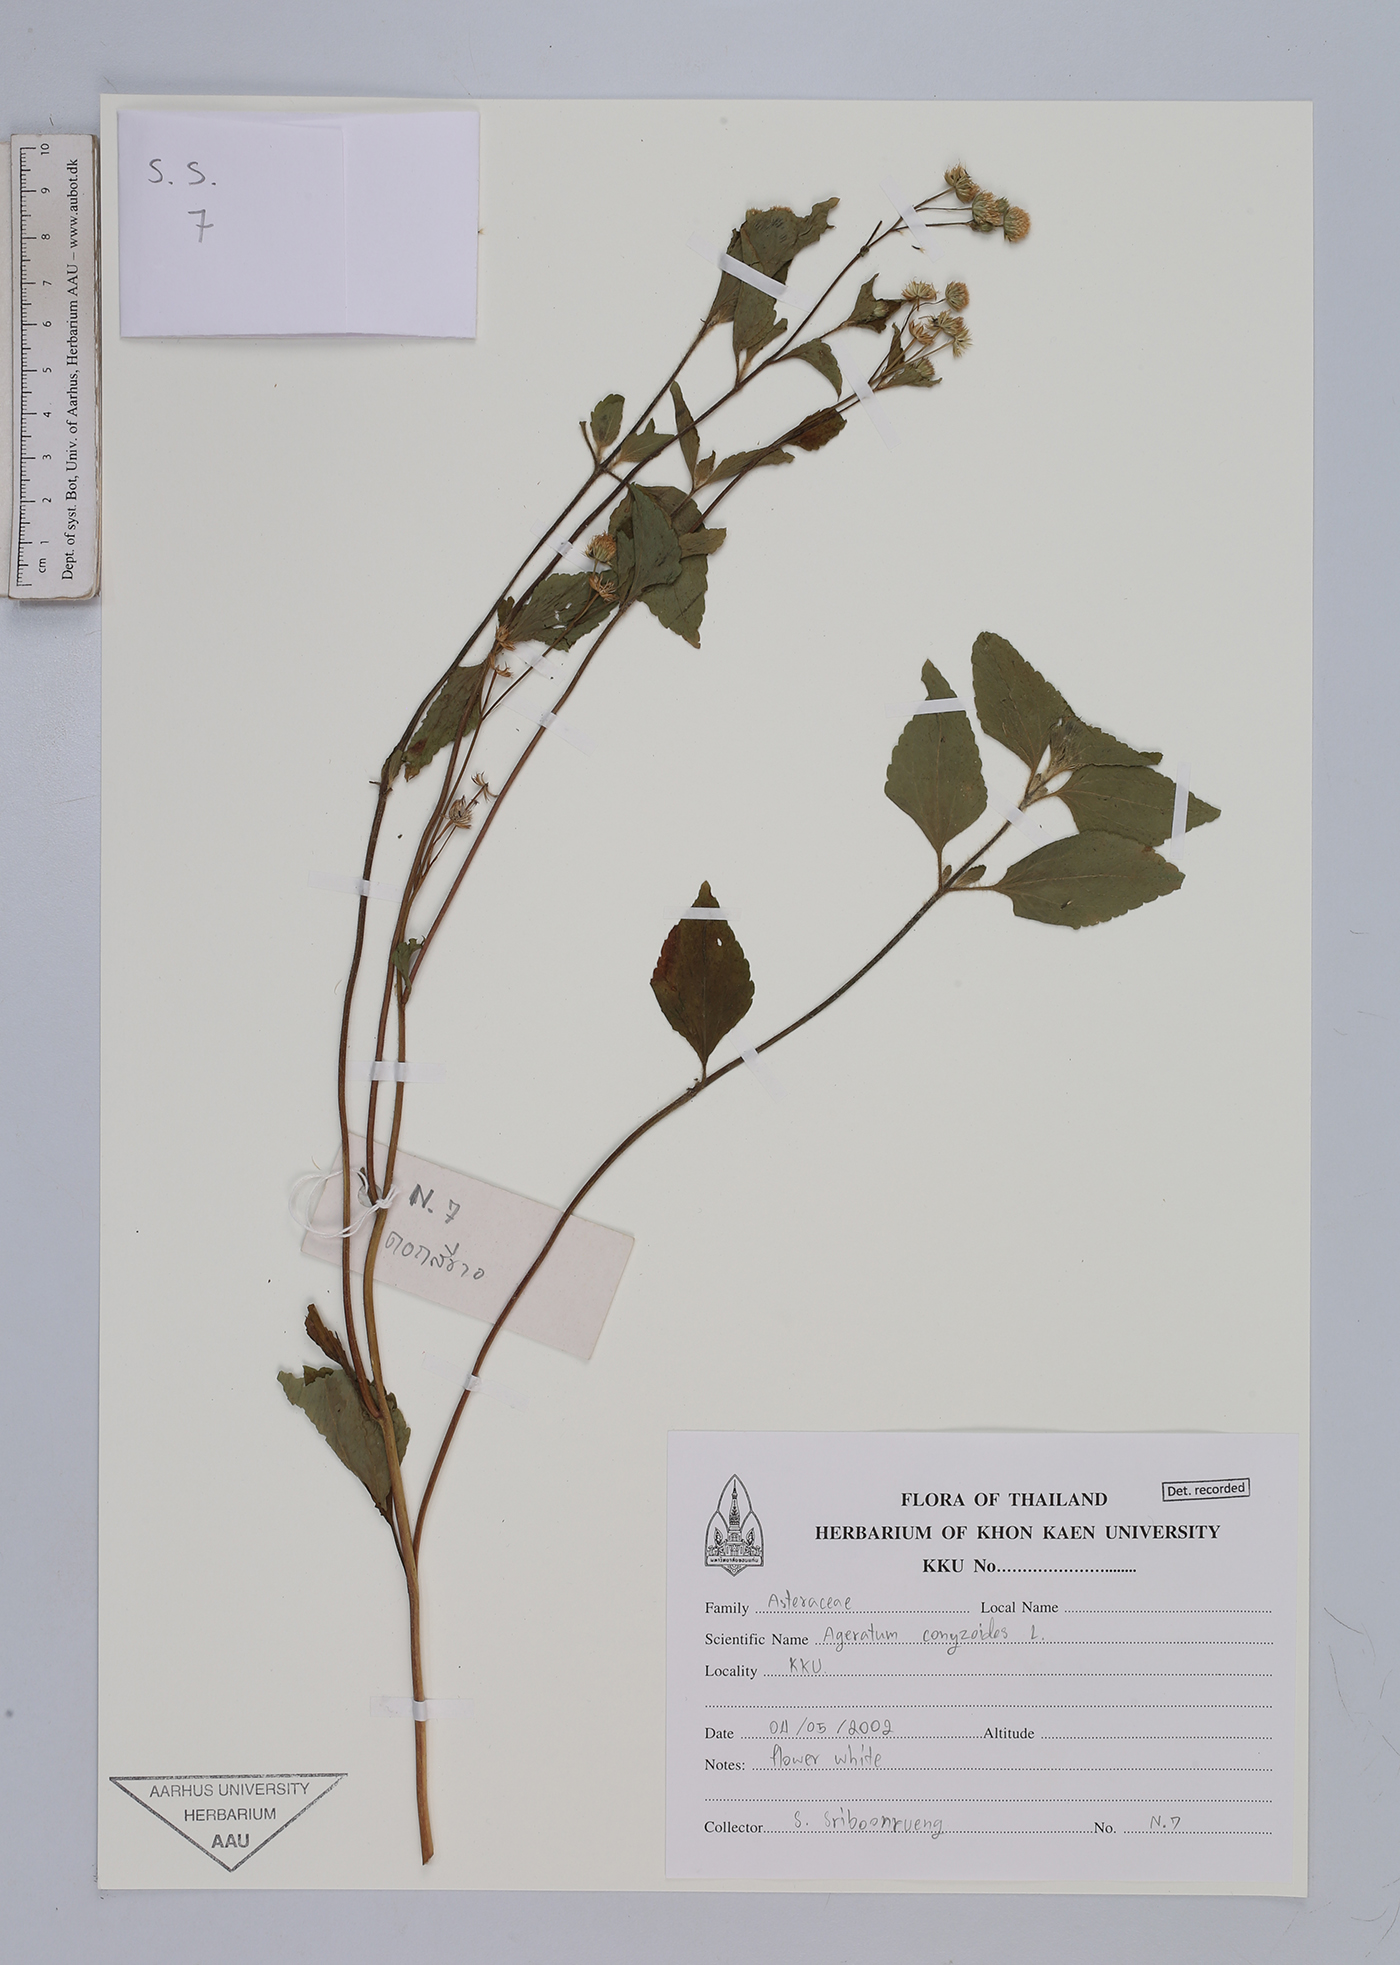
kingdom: Plantae
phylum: Tracheophyta
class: Magnoliopsida
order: Asterales
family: Asteraceae
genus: Ageratum
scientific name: Ageratum conyzoides
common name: Tropical whiteweed
